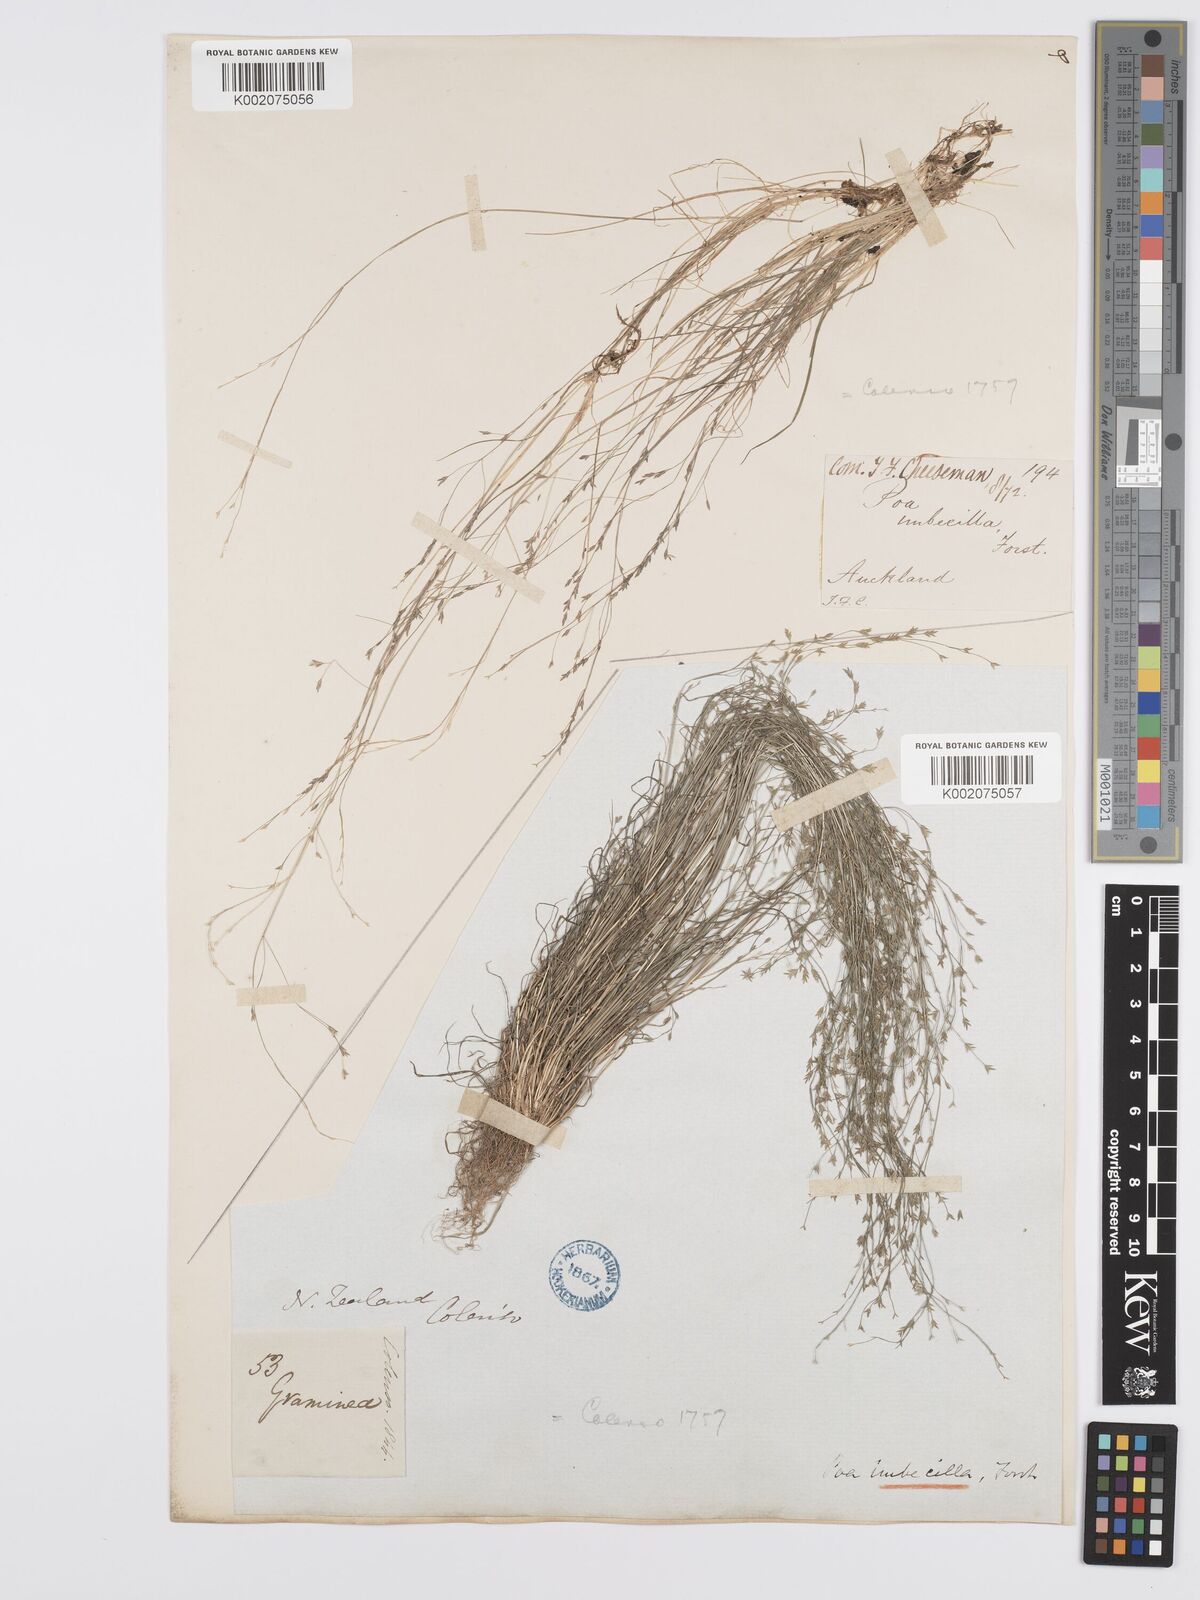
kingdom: Plantae
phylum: Tracheophyta
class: Liliopsida
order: Poales
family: Poaceae
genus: Poa
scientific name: Poa imbecilla
